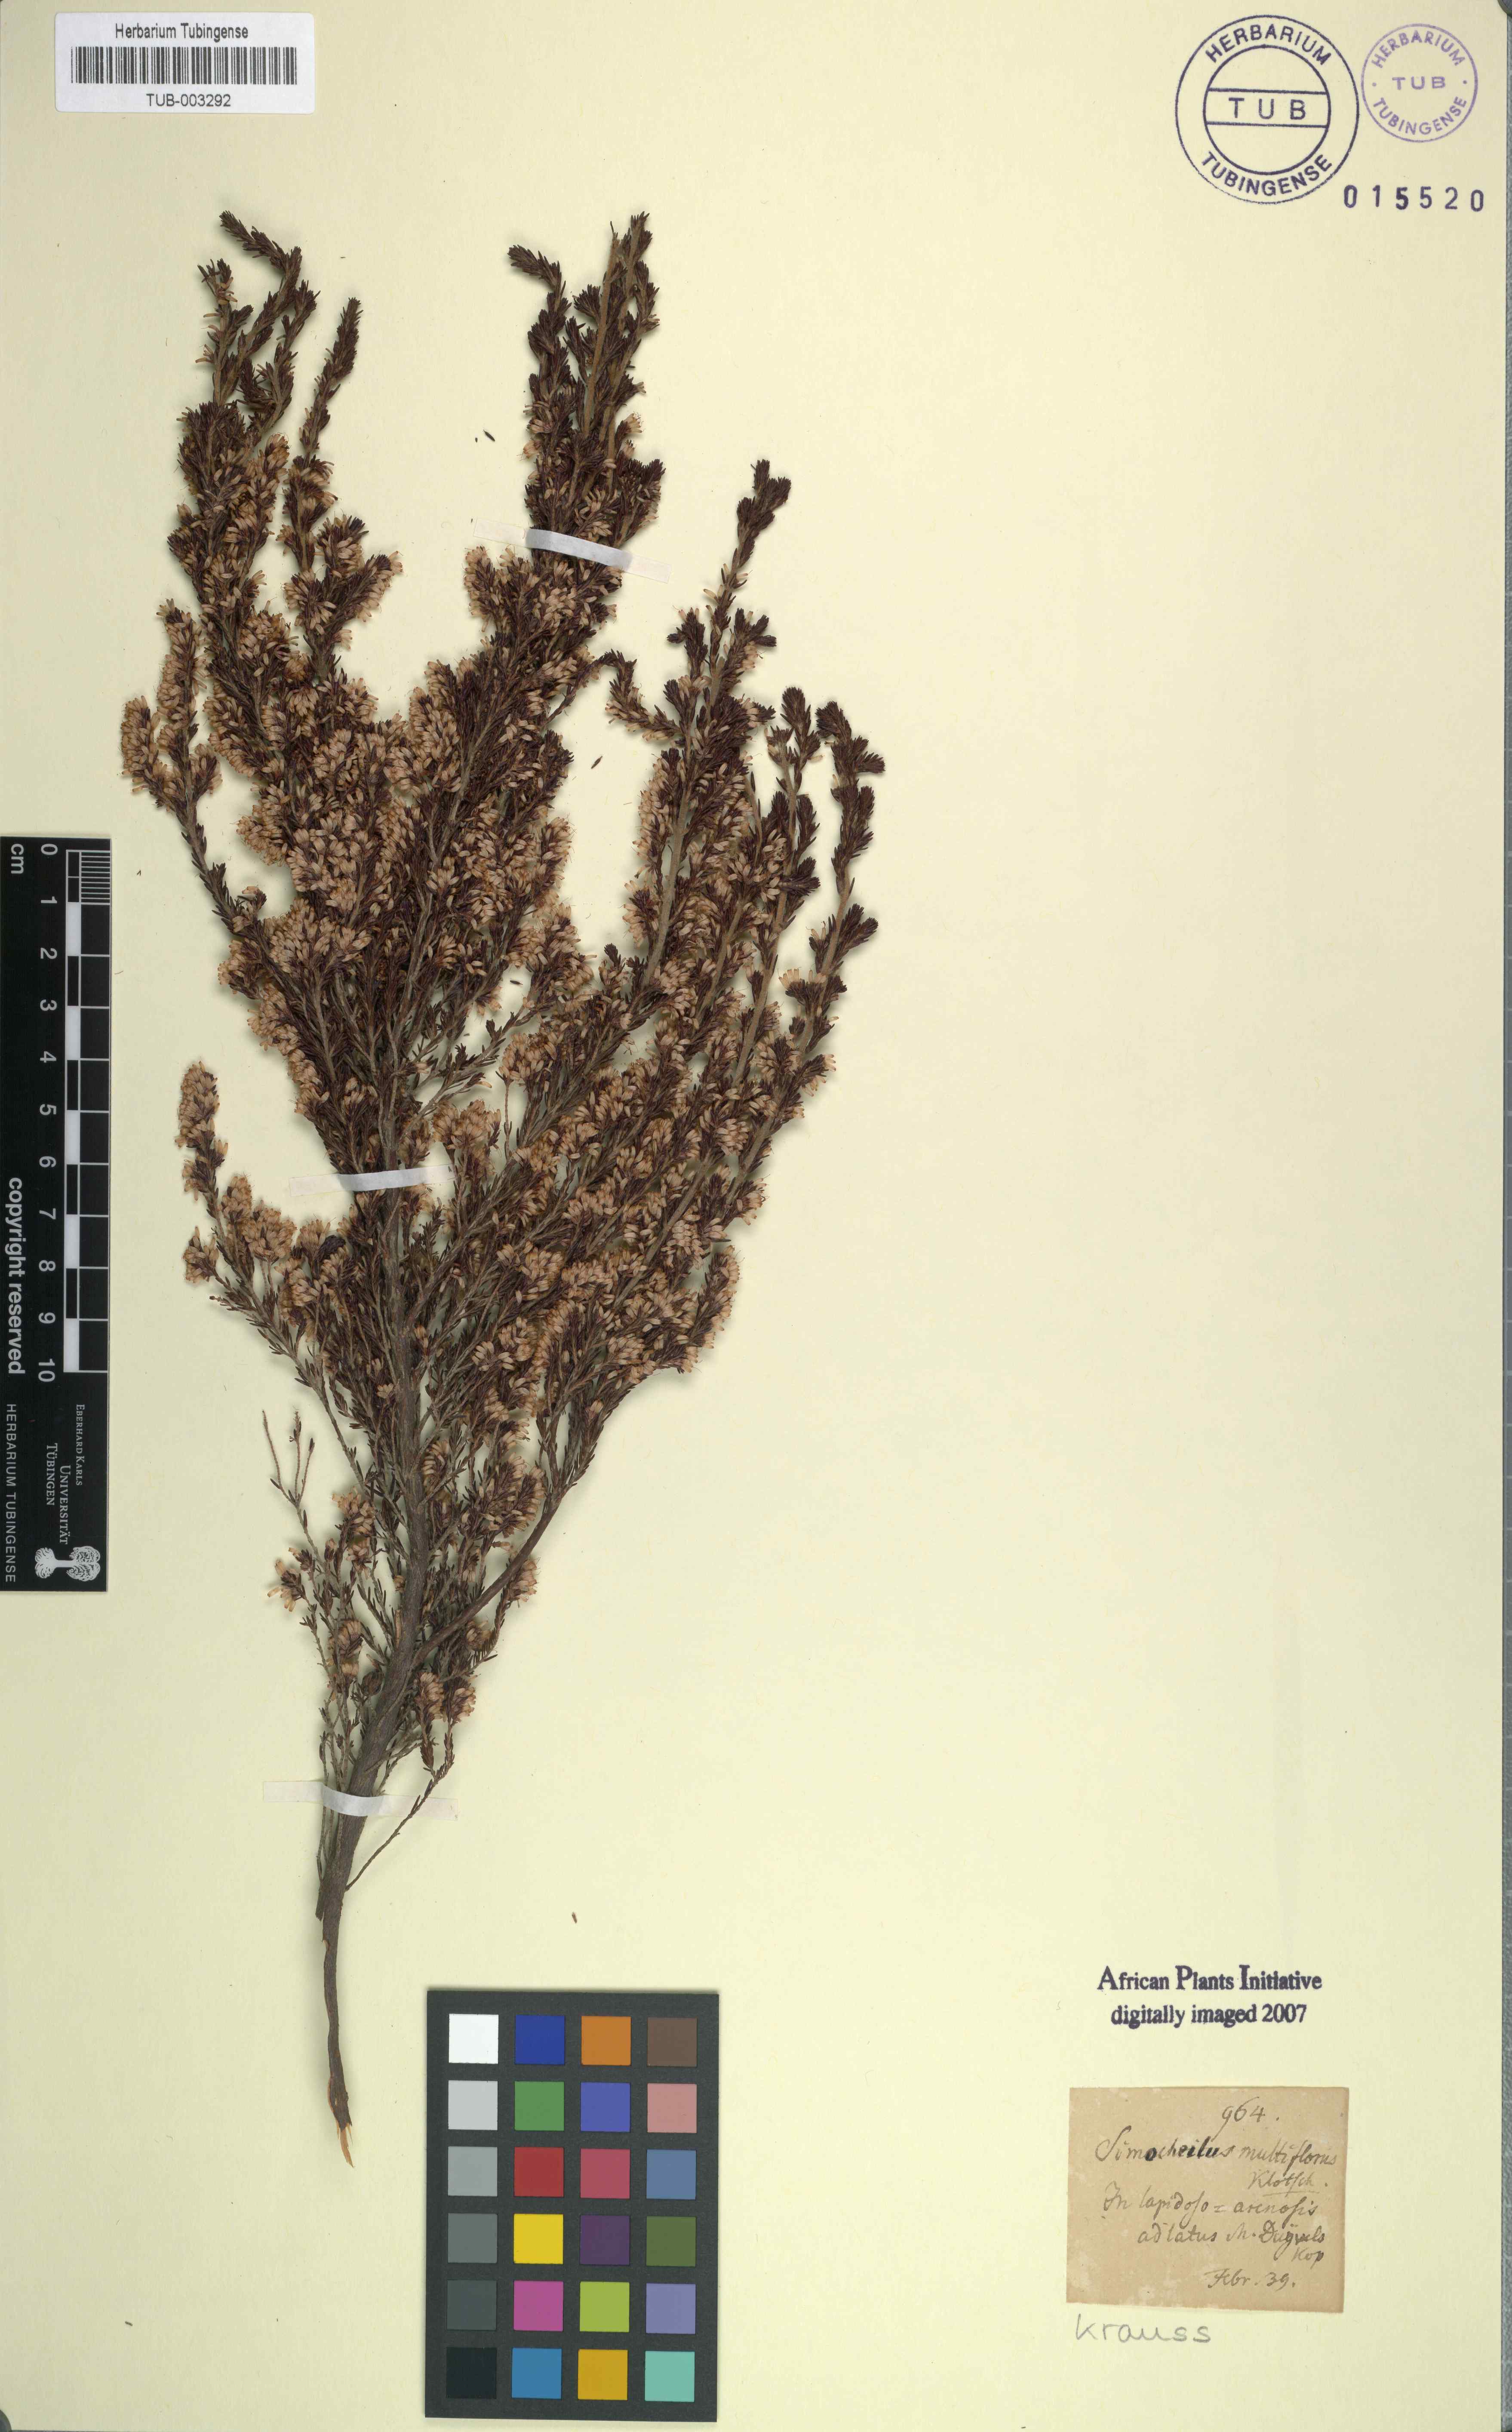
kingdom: Plantae
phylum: Tracheophyta
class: Magnoliopsida
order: Ericales
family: Ericaceae
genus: Erica
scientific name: Erica uberiflora
